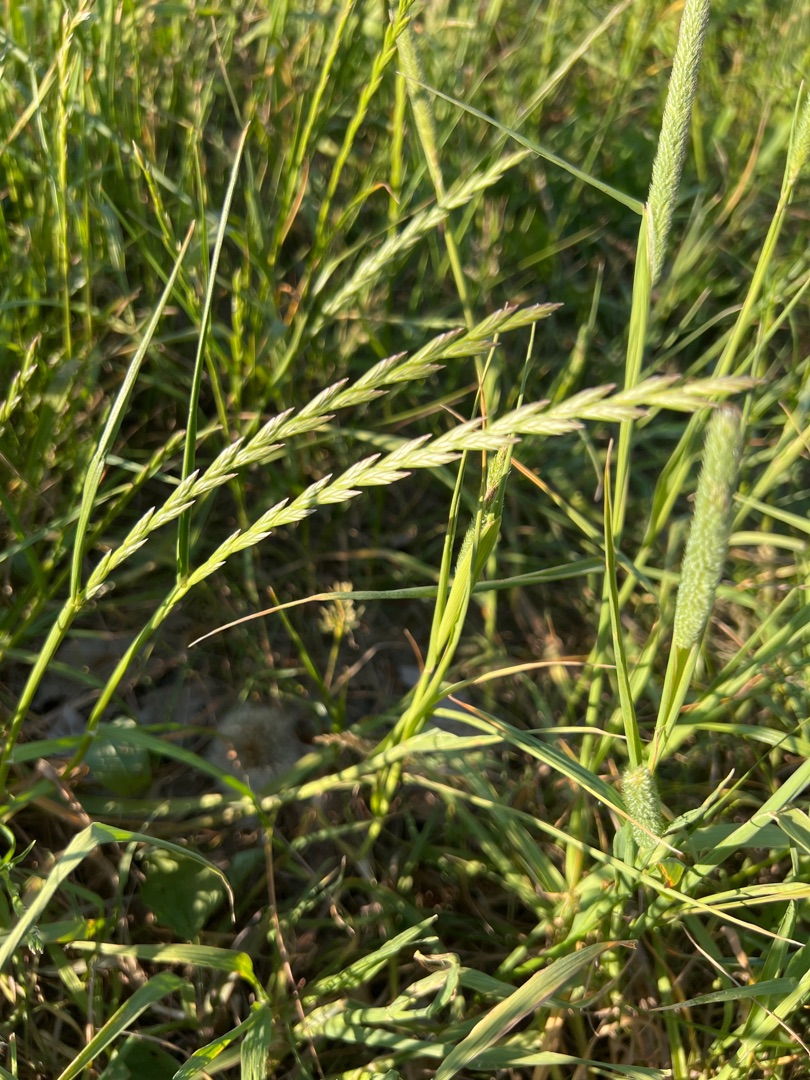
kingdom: Plantae
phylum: Tracheophyta
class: Liliopsida
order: Poales
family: Poaceae
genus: Lolium
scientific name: Lolium perenne
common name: Almindelig rajgræs
